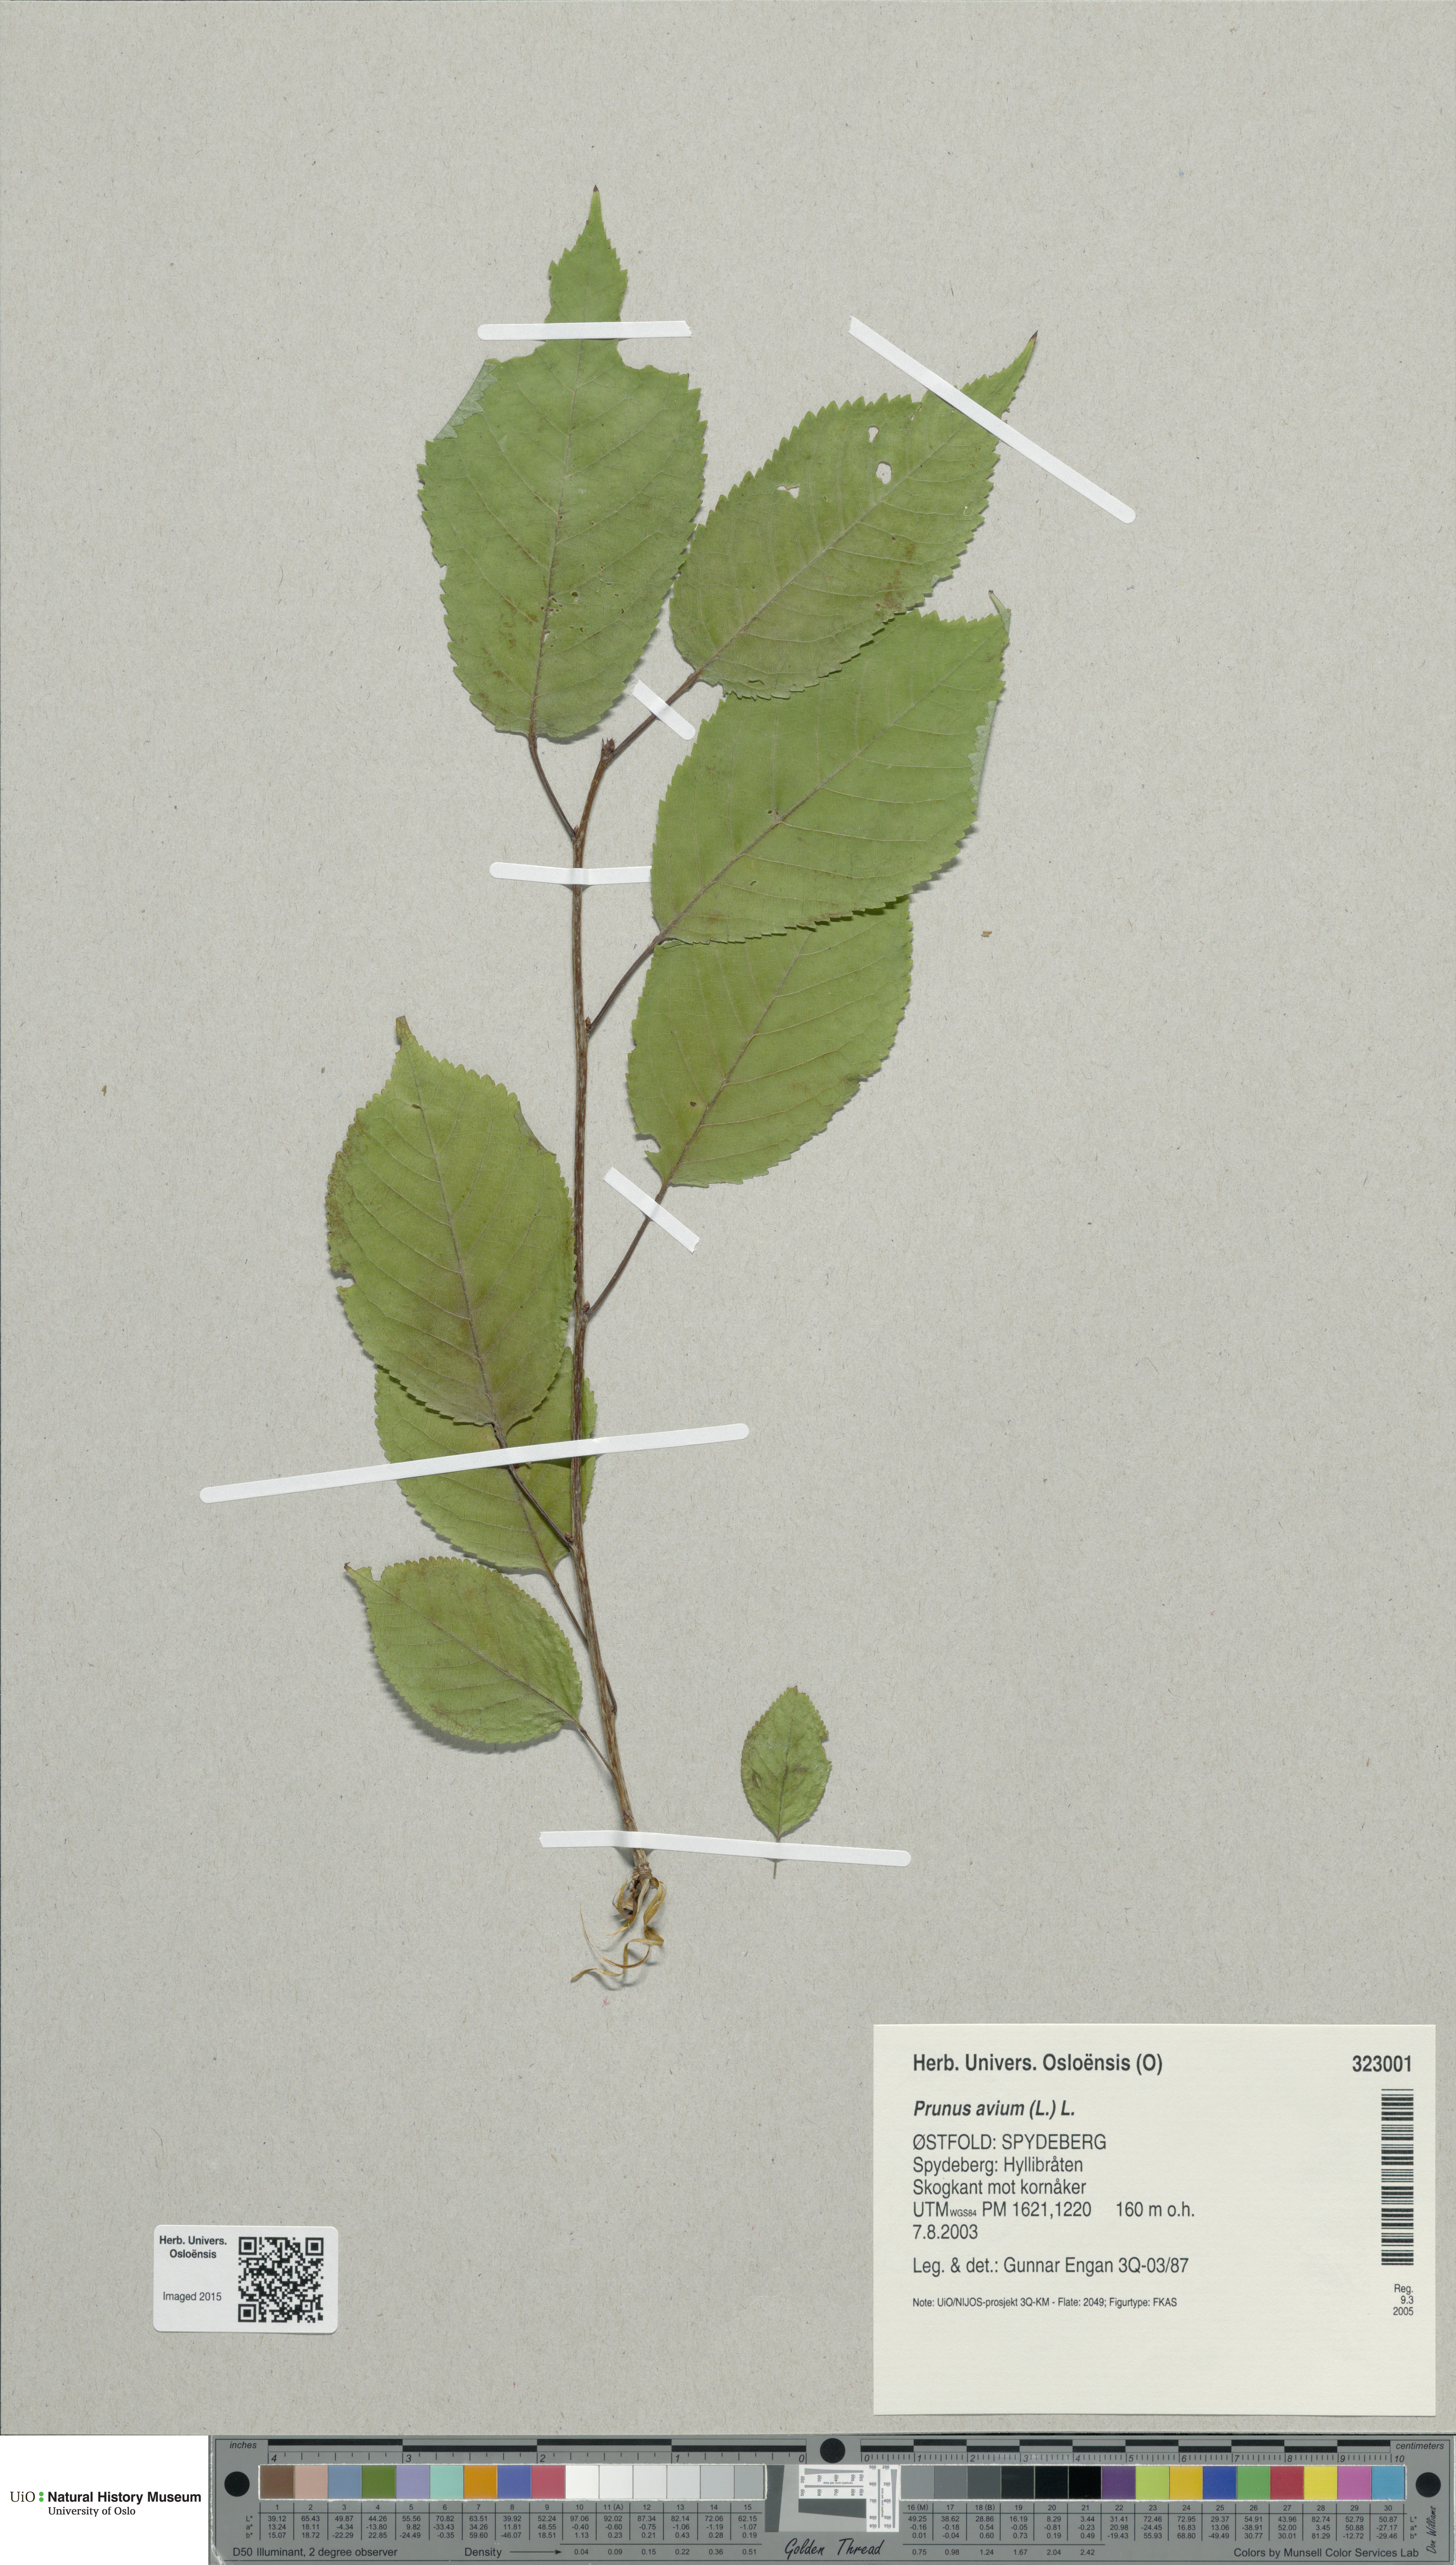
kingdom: Plantae
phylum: Tracheophyta
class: Magnoliopsida
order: Rosales
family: Rosaceae
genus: Prunus
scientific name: Prunus avium
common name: Sweet cherry
